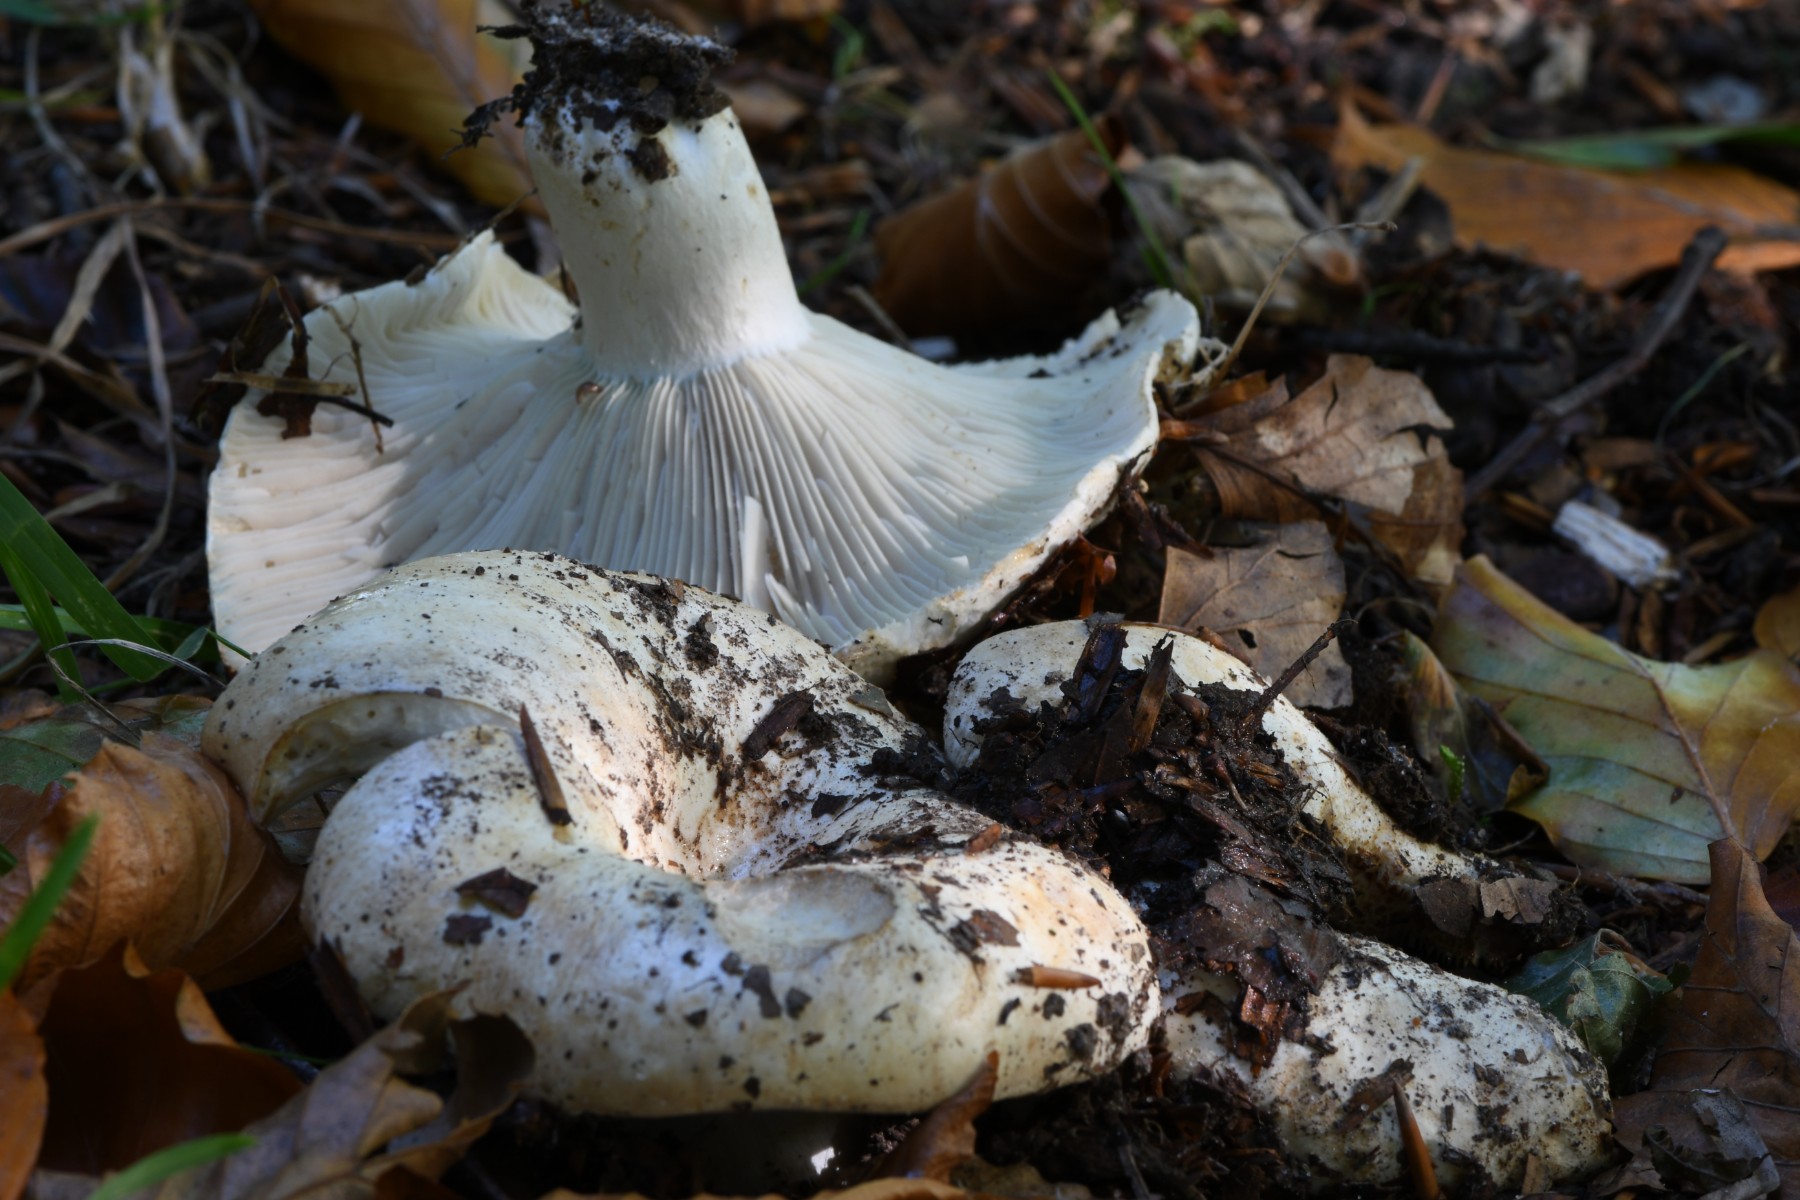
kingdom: Fungi
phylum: Basidiomycota
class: Agaricomycetes
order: Russulales
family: Russulaceae
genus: Russula
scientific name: Russula chloroides
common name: grønhalset tragt-skørhat
